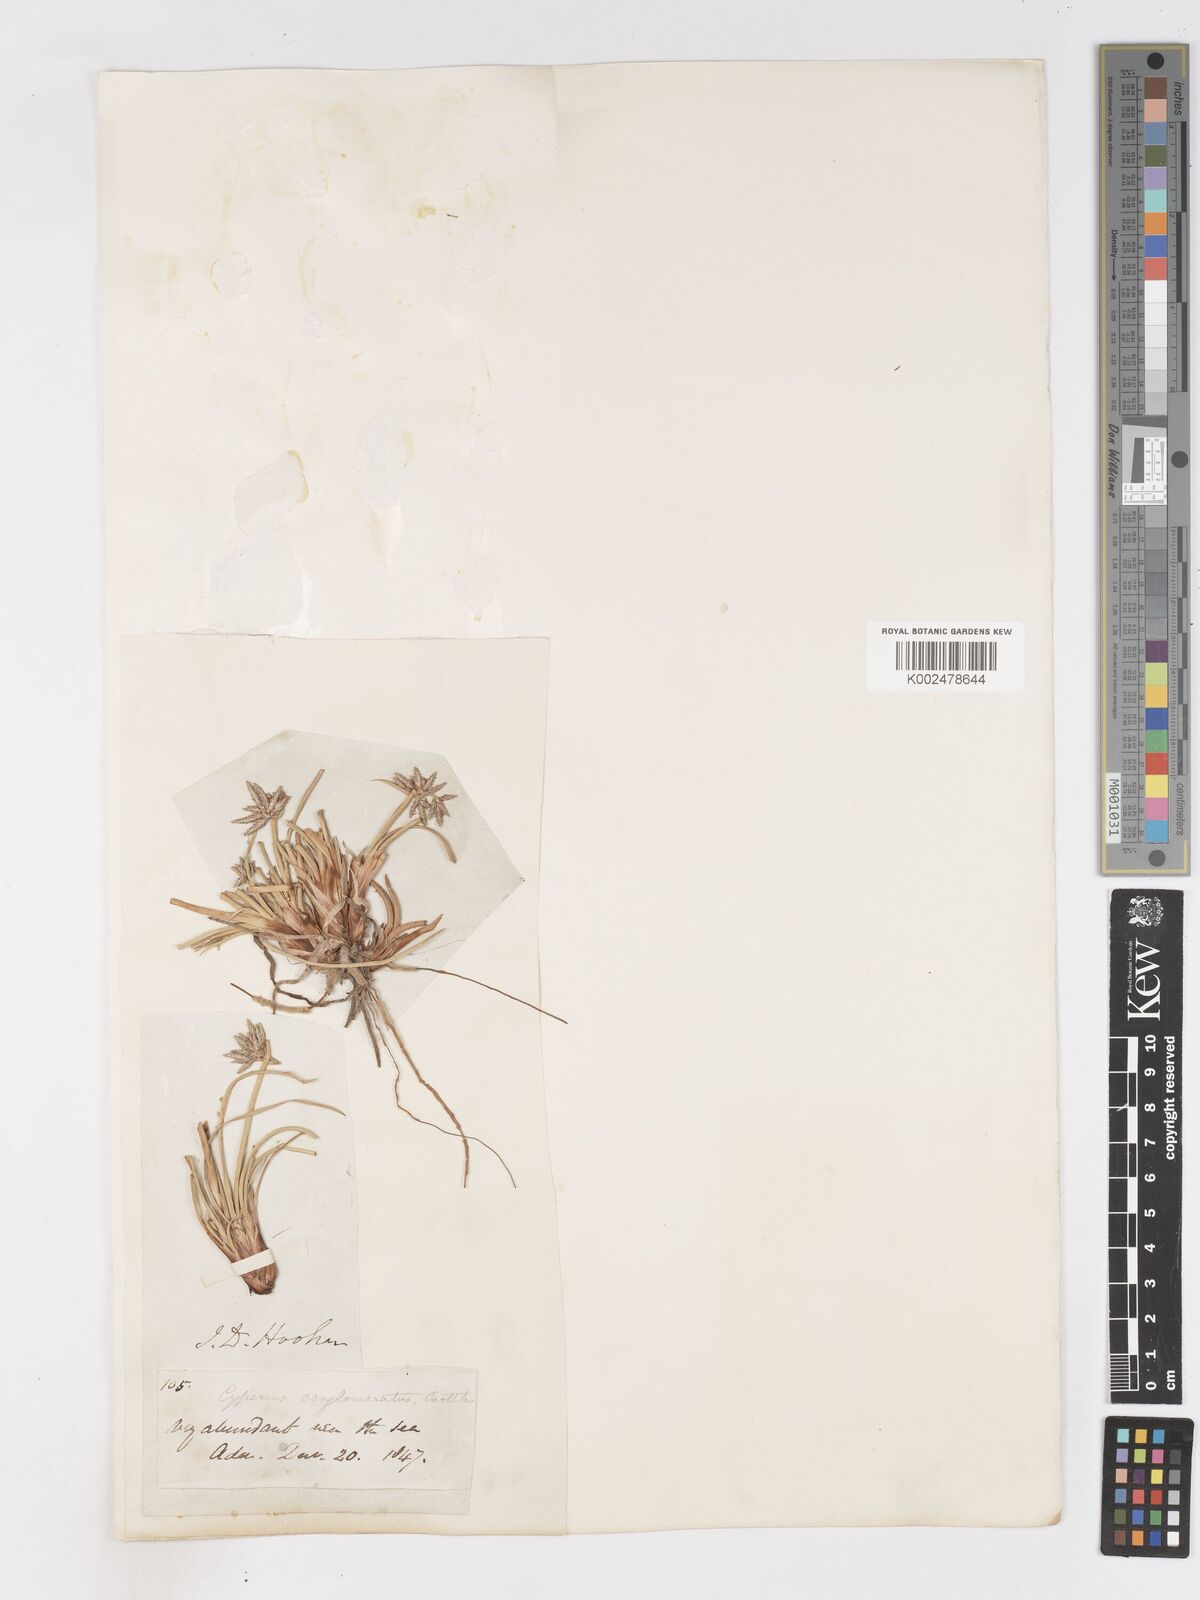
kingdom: Plantae
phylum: Tracheophyta
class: Liliopsida
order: Poales
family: Cyperaceae
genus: Cyperus
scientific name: Cyperus conglomeratus
